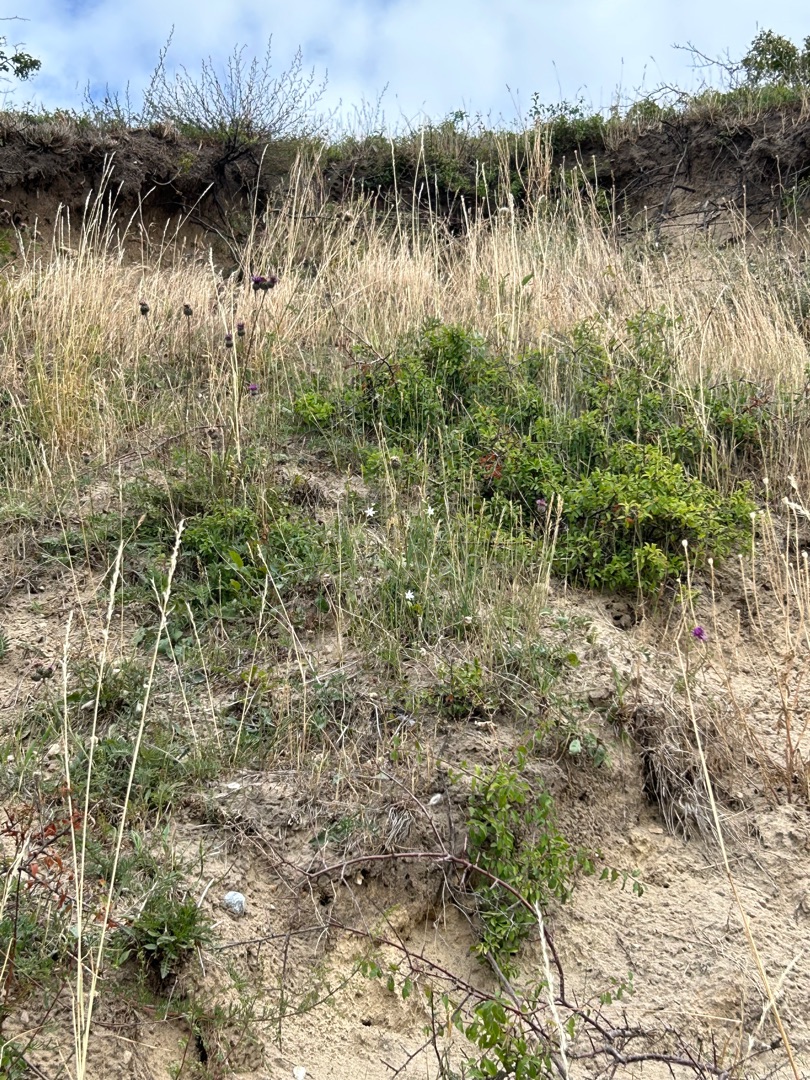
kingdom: Plantae
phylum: Tracheophyta
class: Liliopsida
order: Asparagales
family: Asparagaceae
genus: Anthericum
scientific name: Anthericum ramosum
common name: Grenet edderkopurt
